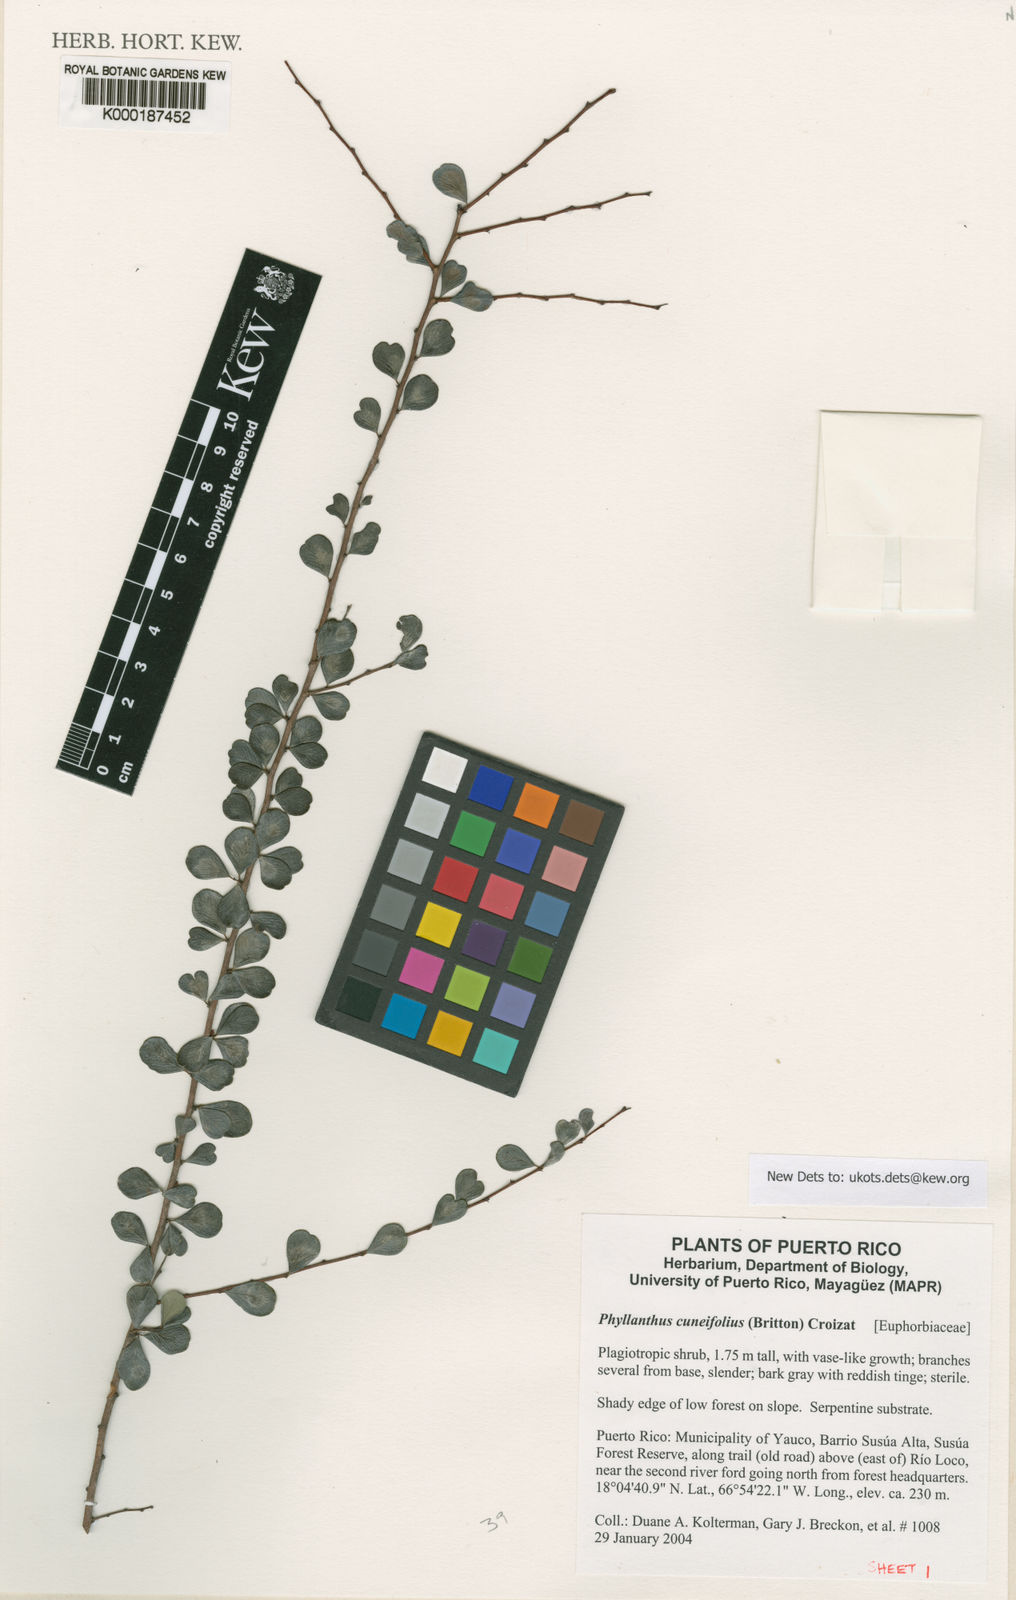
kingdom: Plantae
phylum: Tracheophyta
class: Magnoliopsida
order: Malpighiales
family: Phyllanthaceae
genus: Phyllanthus
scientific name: Phyllanthus cuneifolius
